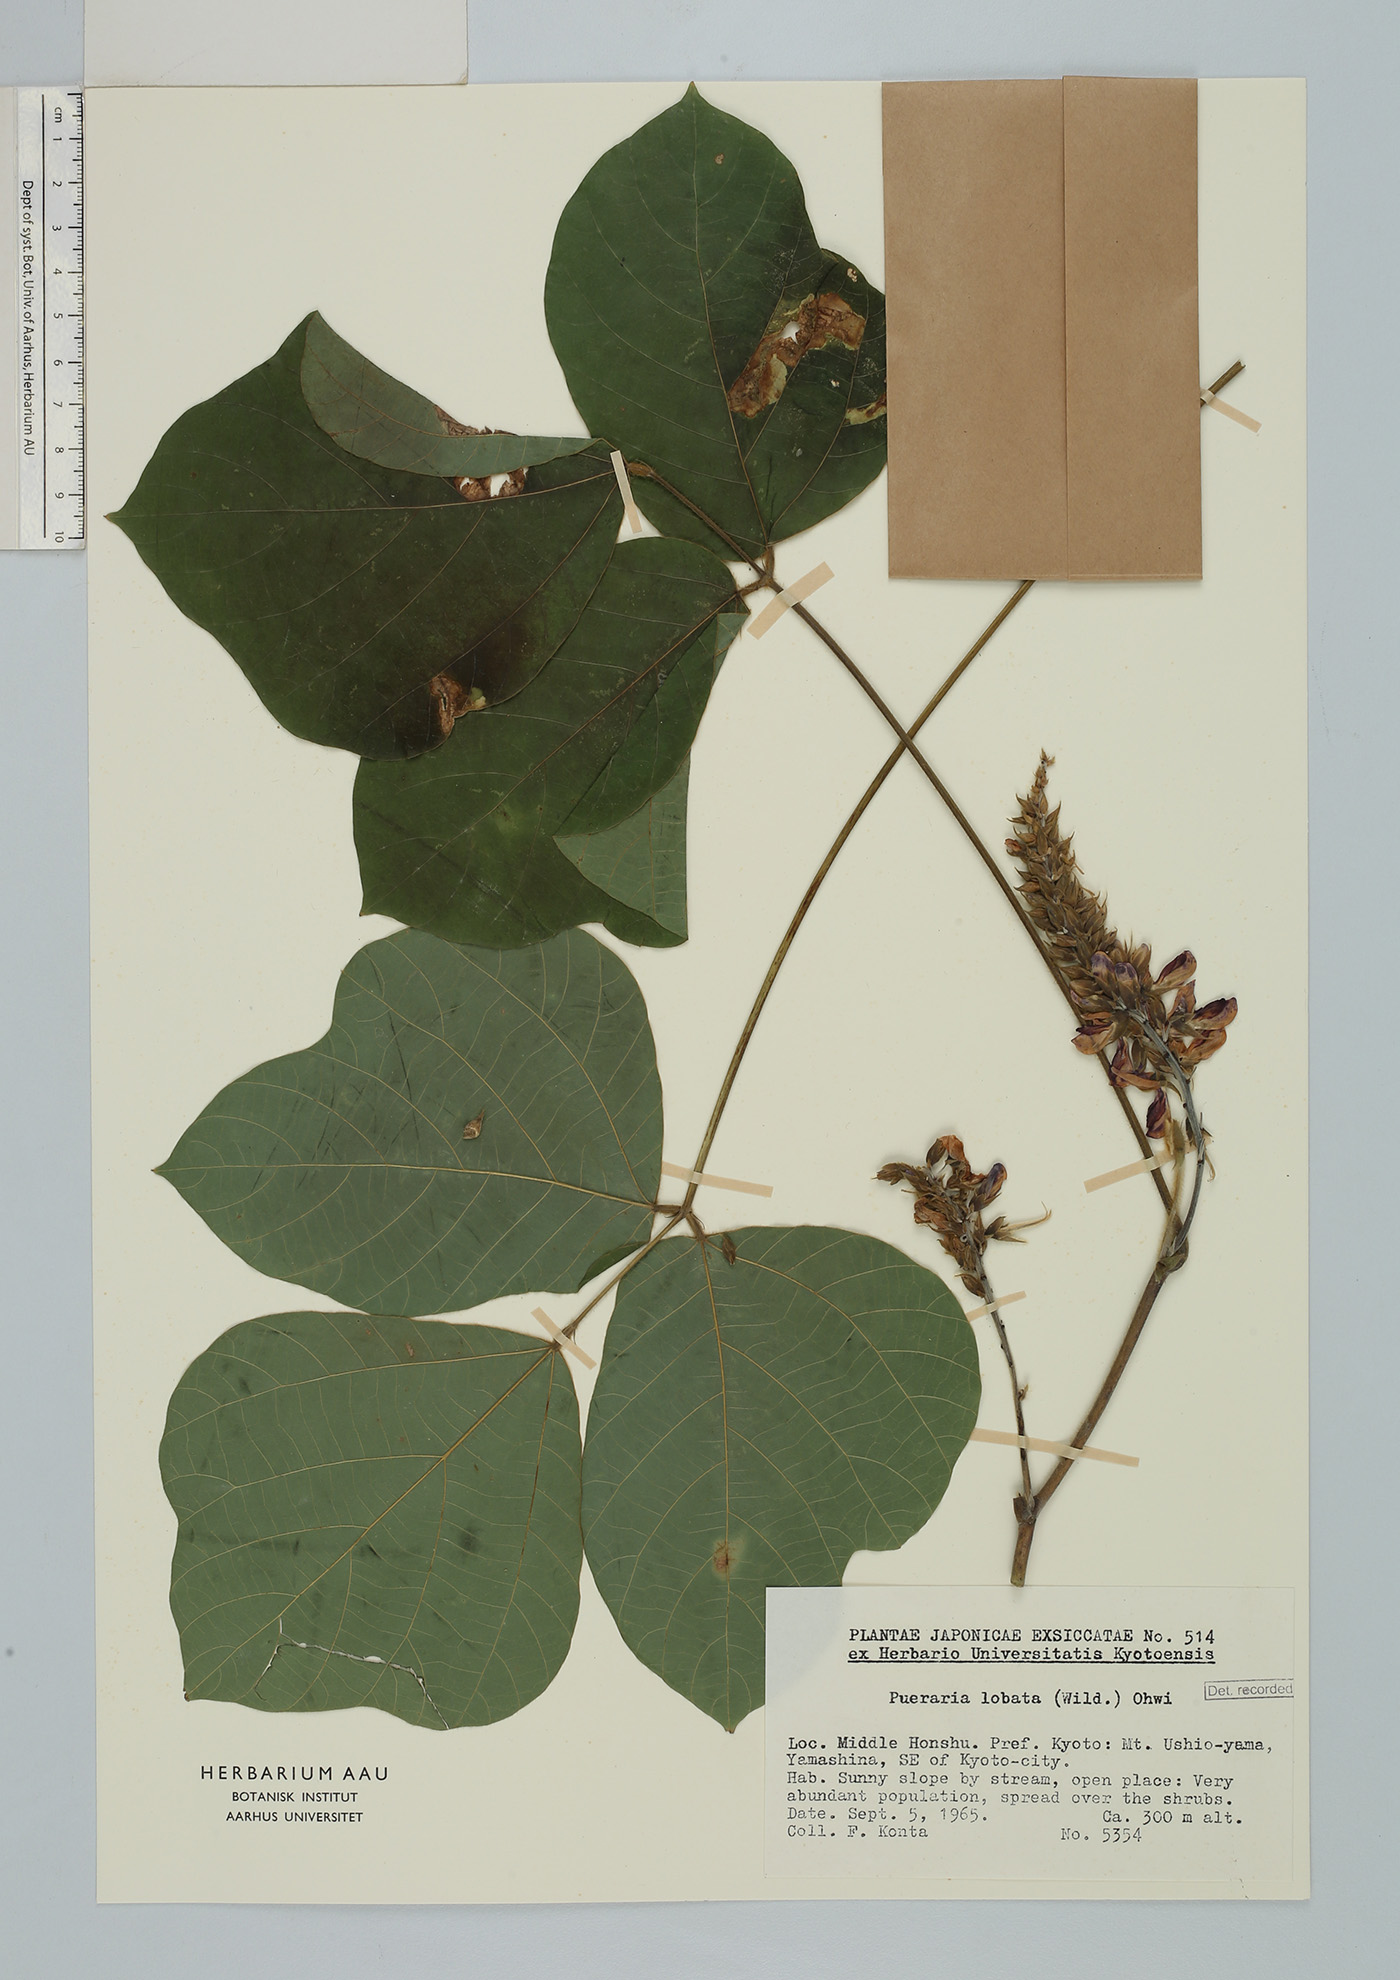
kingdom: Plantae
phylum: Tracheophyta
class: Magnoliopsida
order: Fabales
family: Fabaceae
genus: Pueraria
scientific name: Pueraria montana
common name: Kudzu
